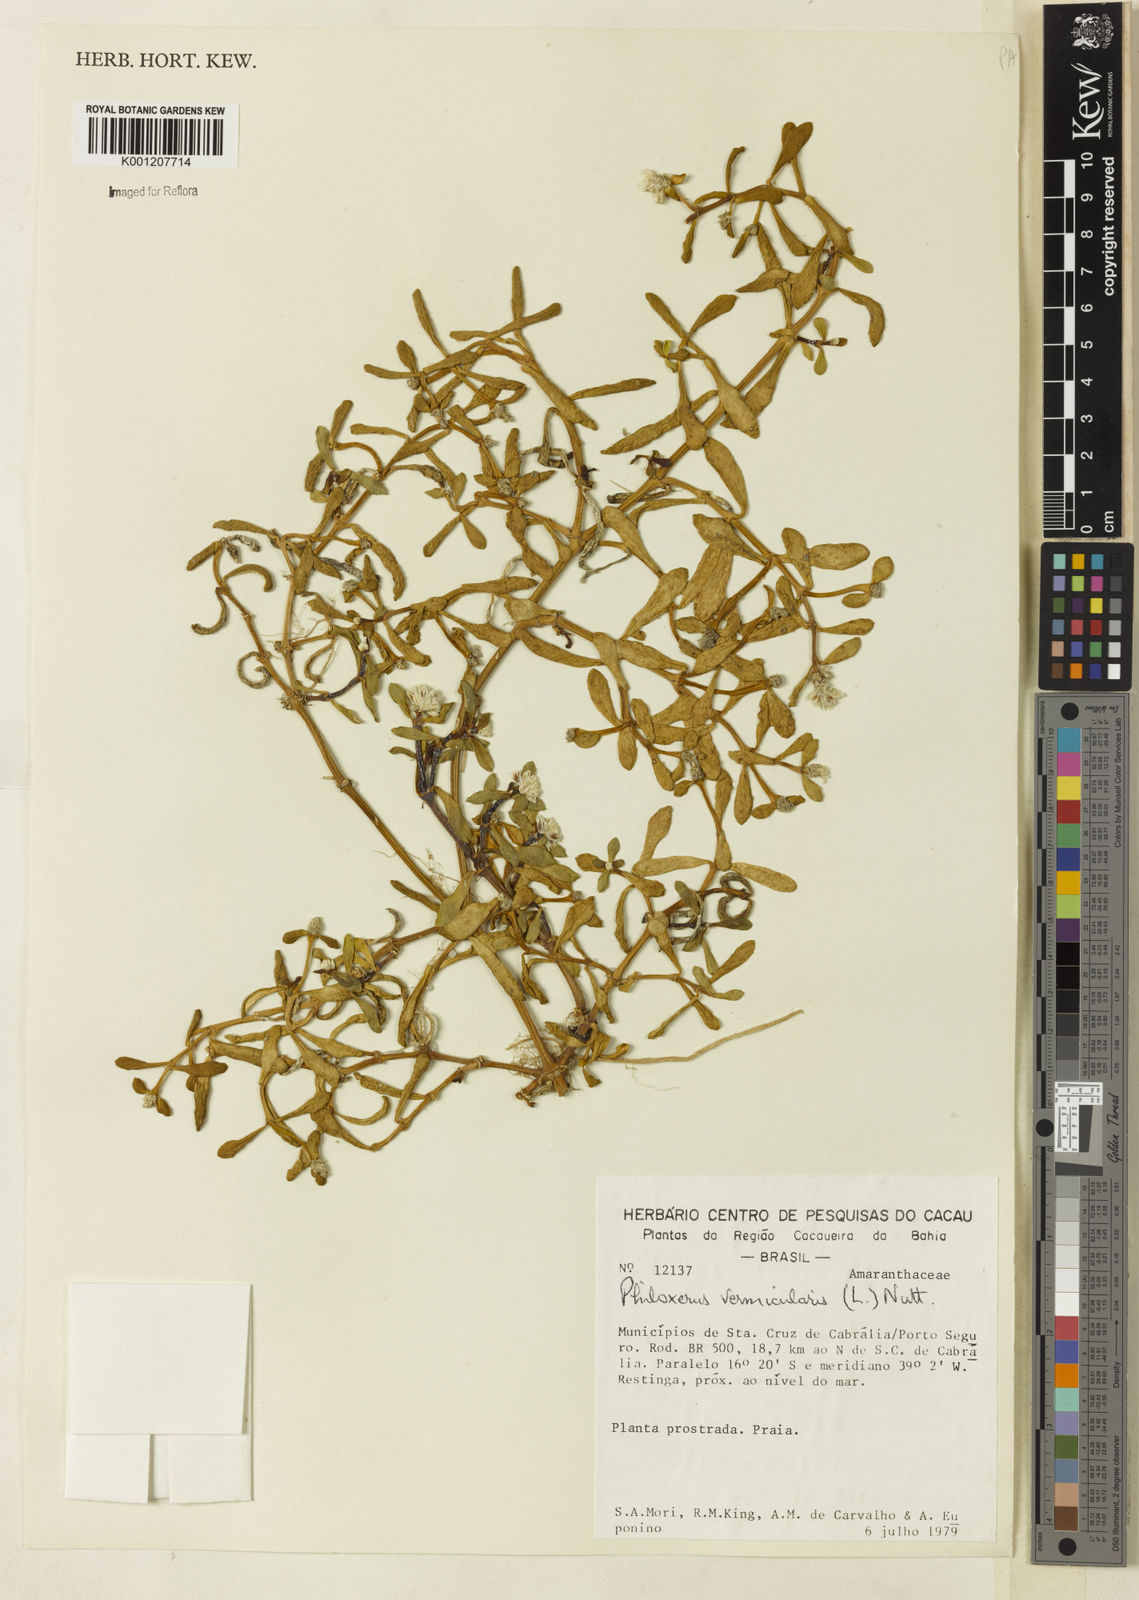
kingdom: Plantae
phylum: Tracheophyta
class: Magnoliopsida
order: Caryophyllales
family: Amaranthaceae
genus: Gomphrena
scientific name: Gomphrena vermicularis
